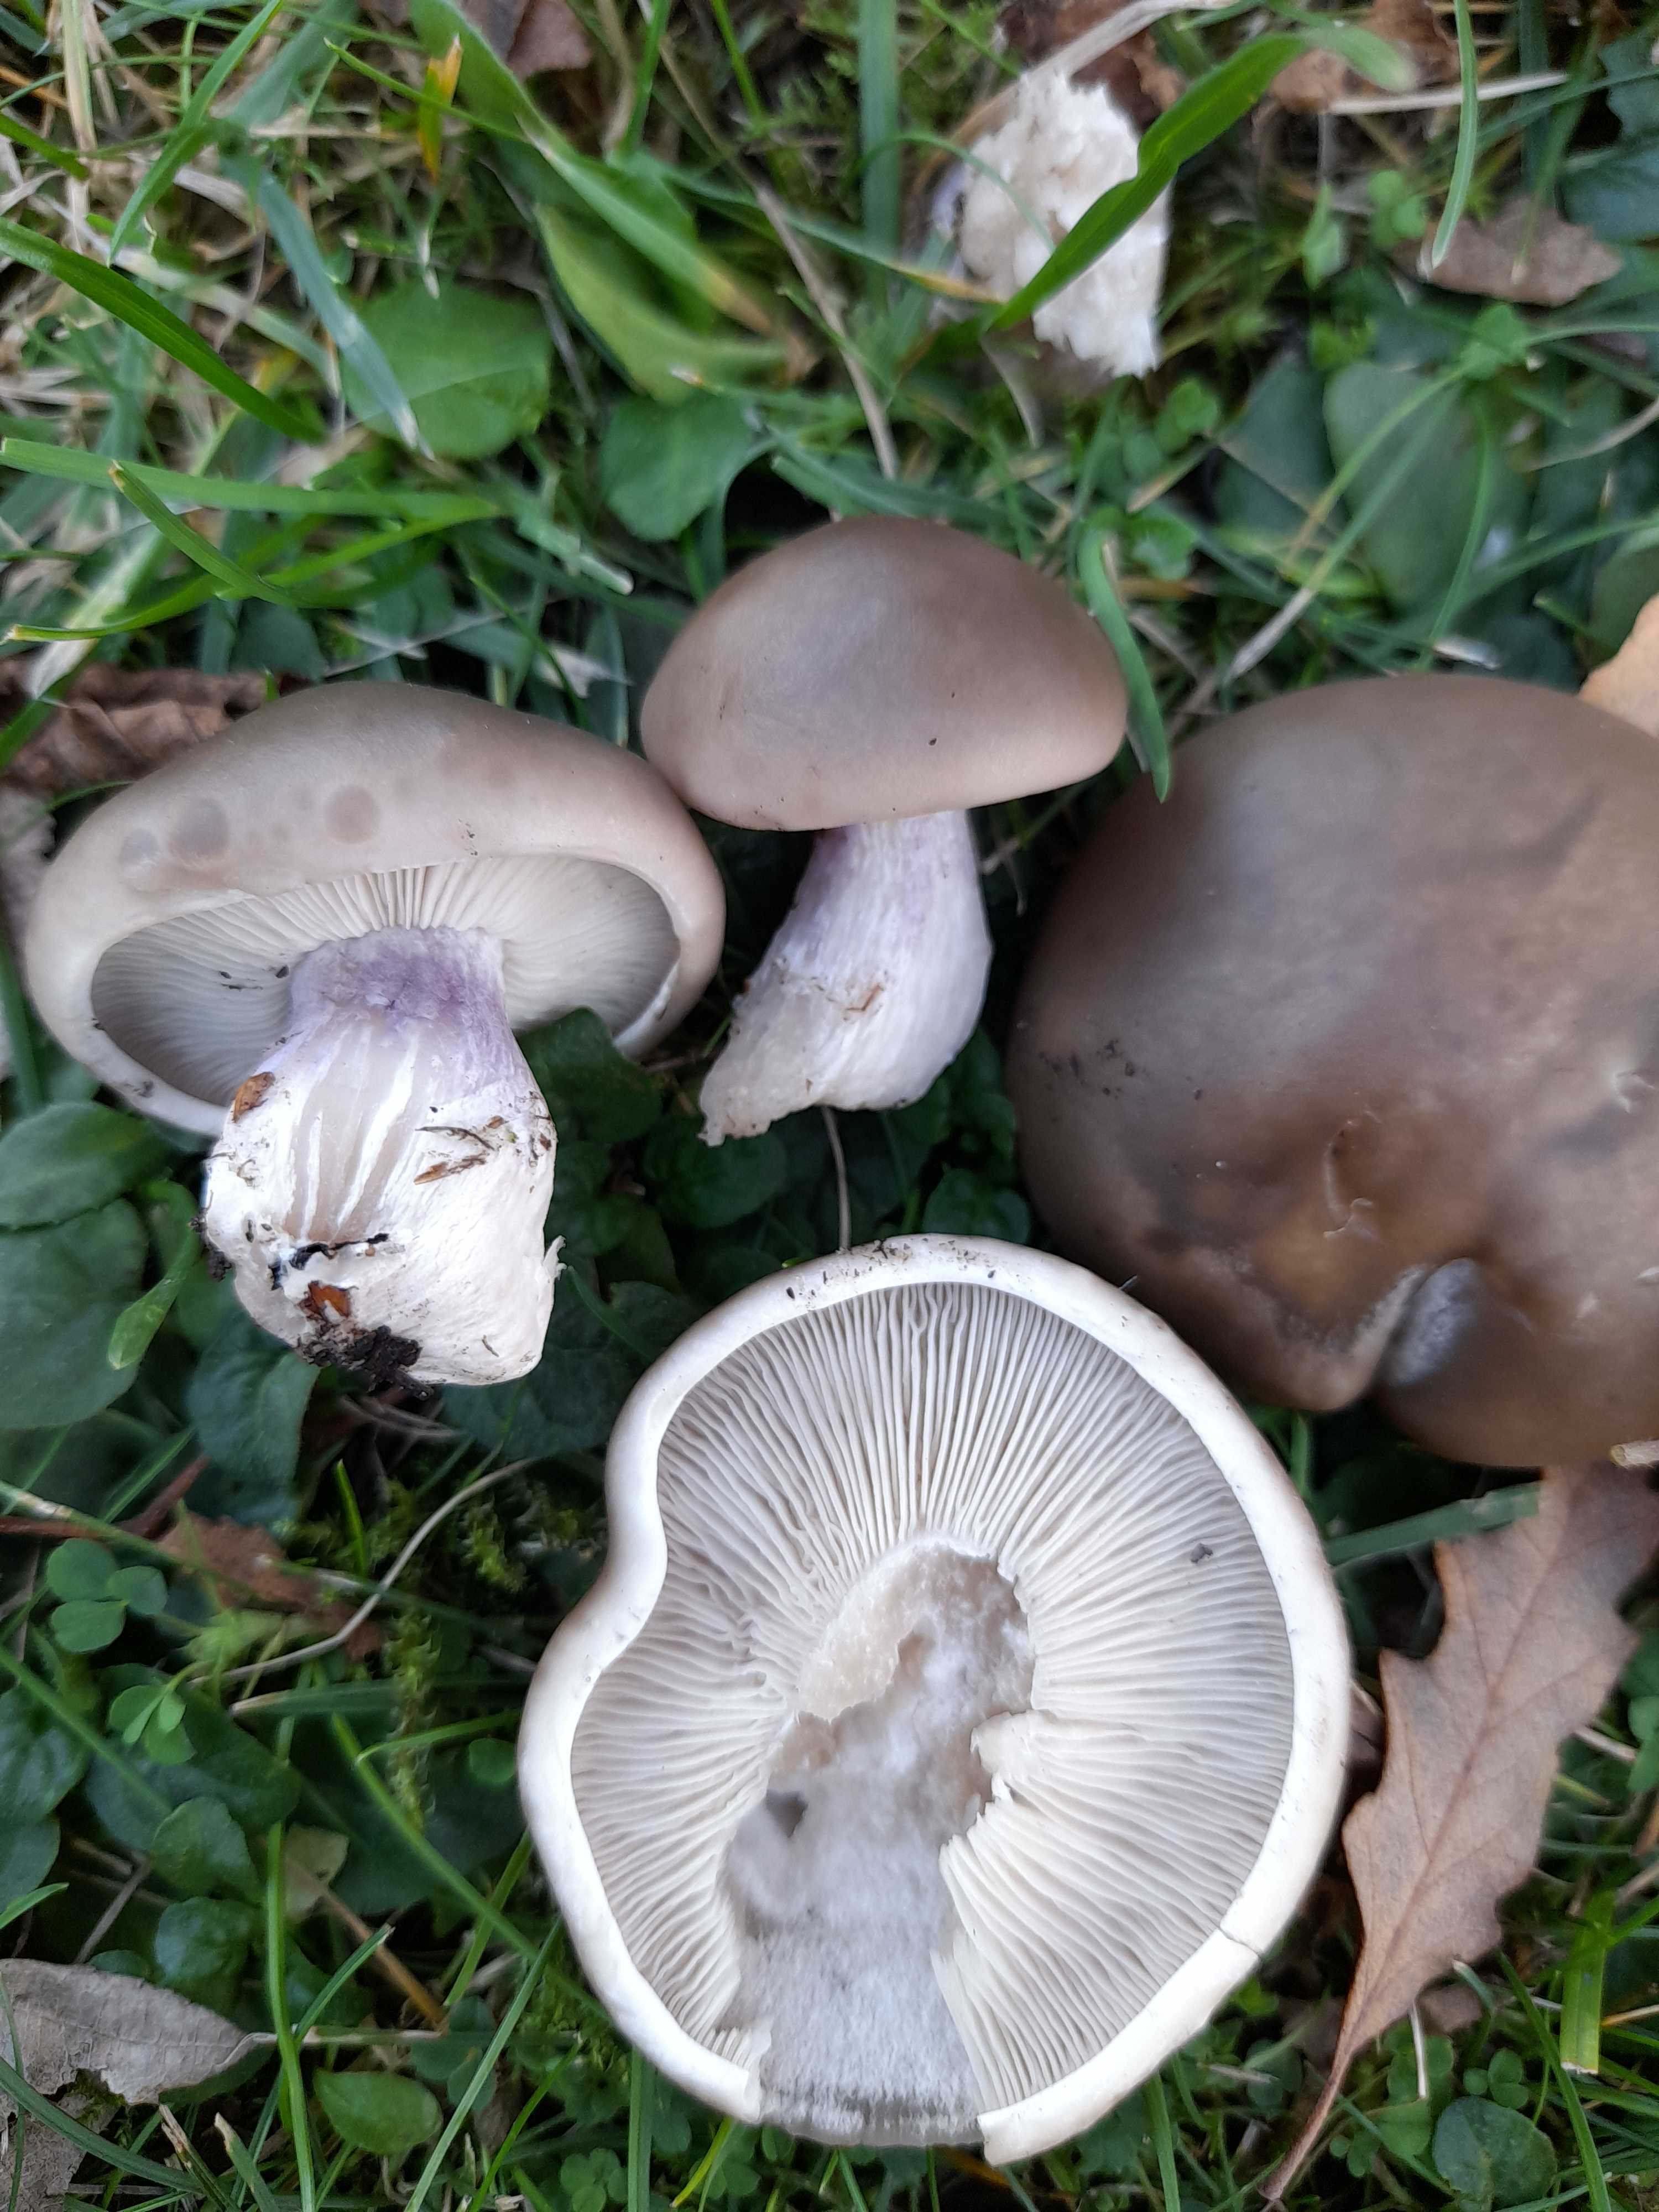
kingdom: Fungi
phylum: Basidiomycota
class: Agaricomycetes
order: Agaricales
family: Tricholomataceae
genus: Lepista
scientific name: Lepista personata
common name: bleg hekseringshat
